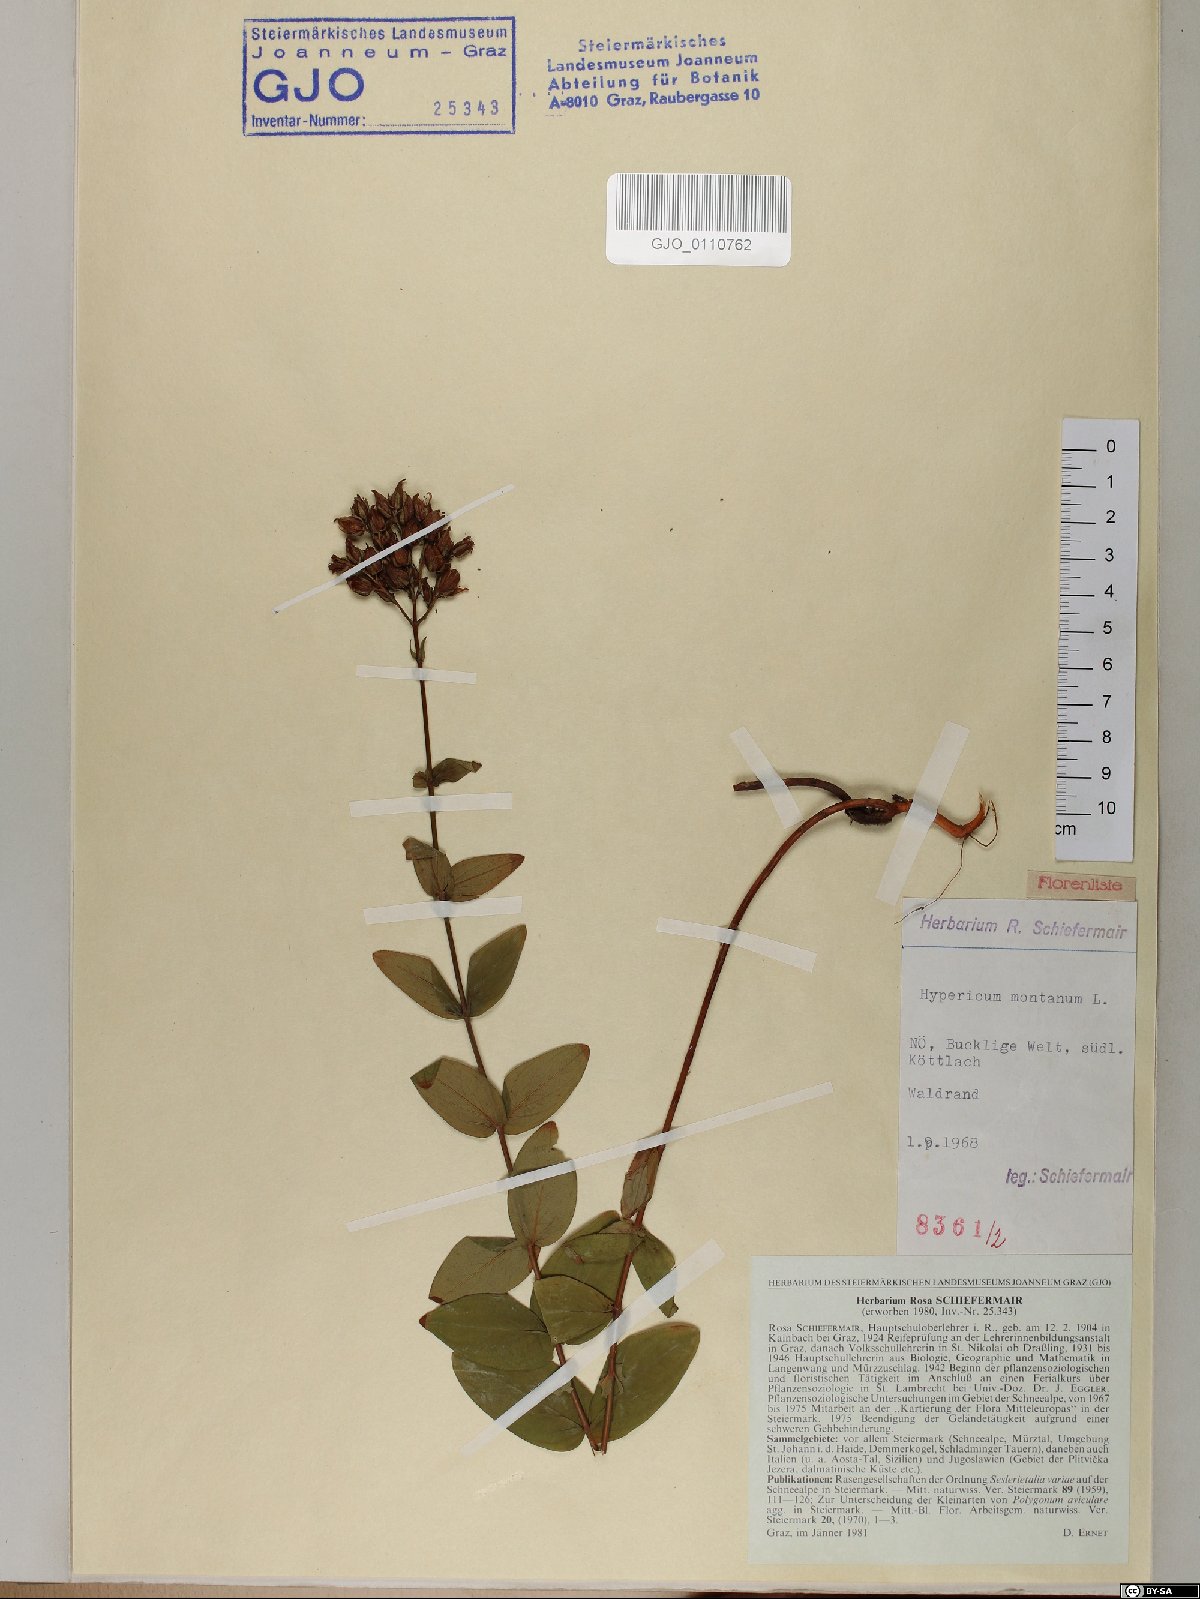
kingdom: Plantae
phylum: Tracheophyta
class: Magnoliopsida
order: Malpighiales
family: Hypericaceae
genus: Hypericum
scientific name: Hypericum montanum
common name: Pale st. john's-wort
